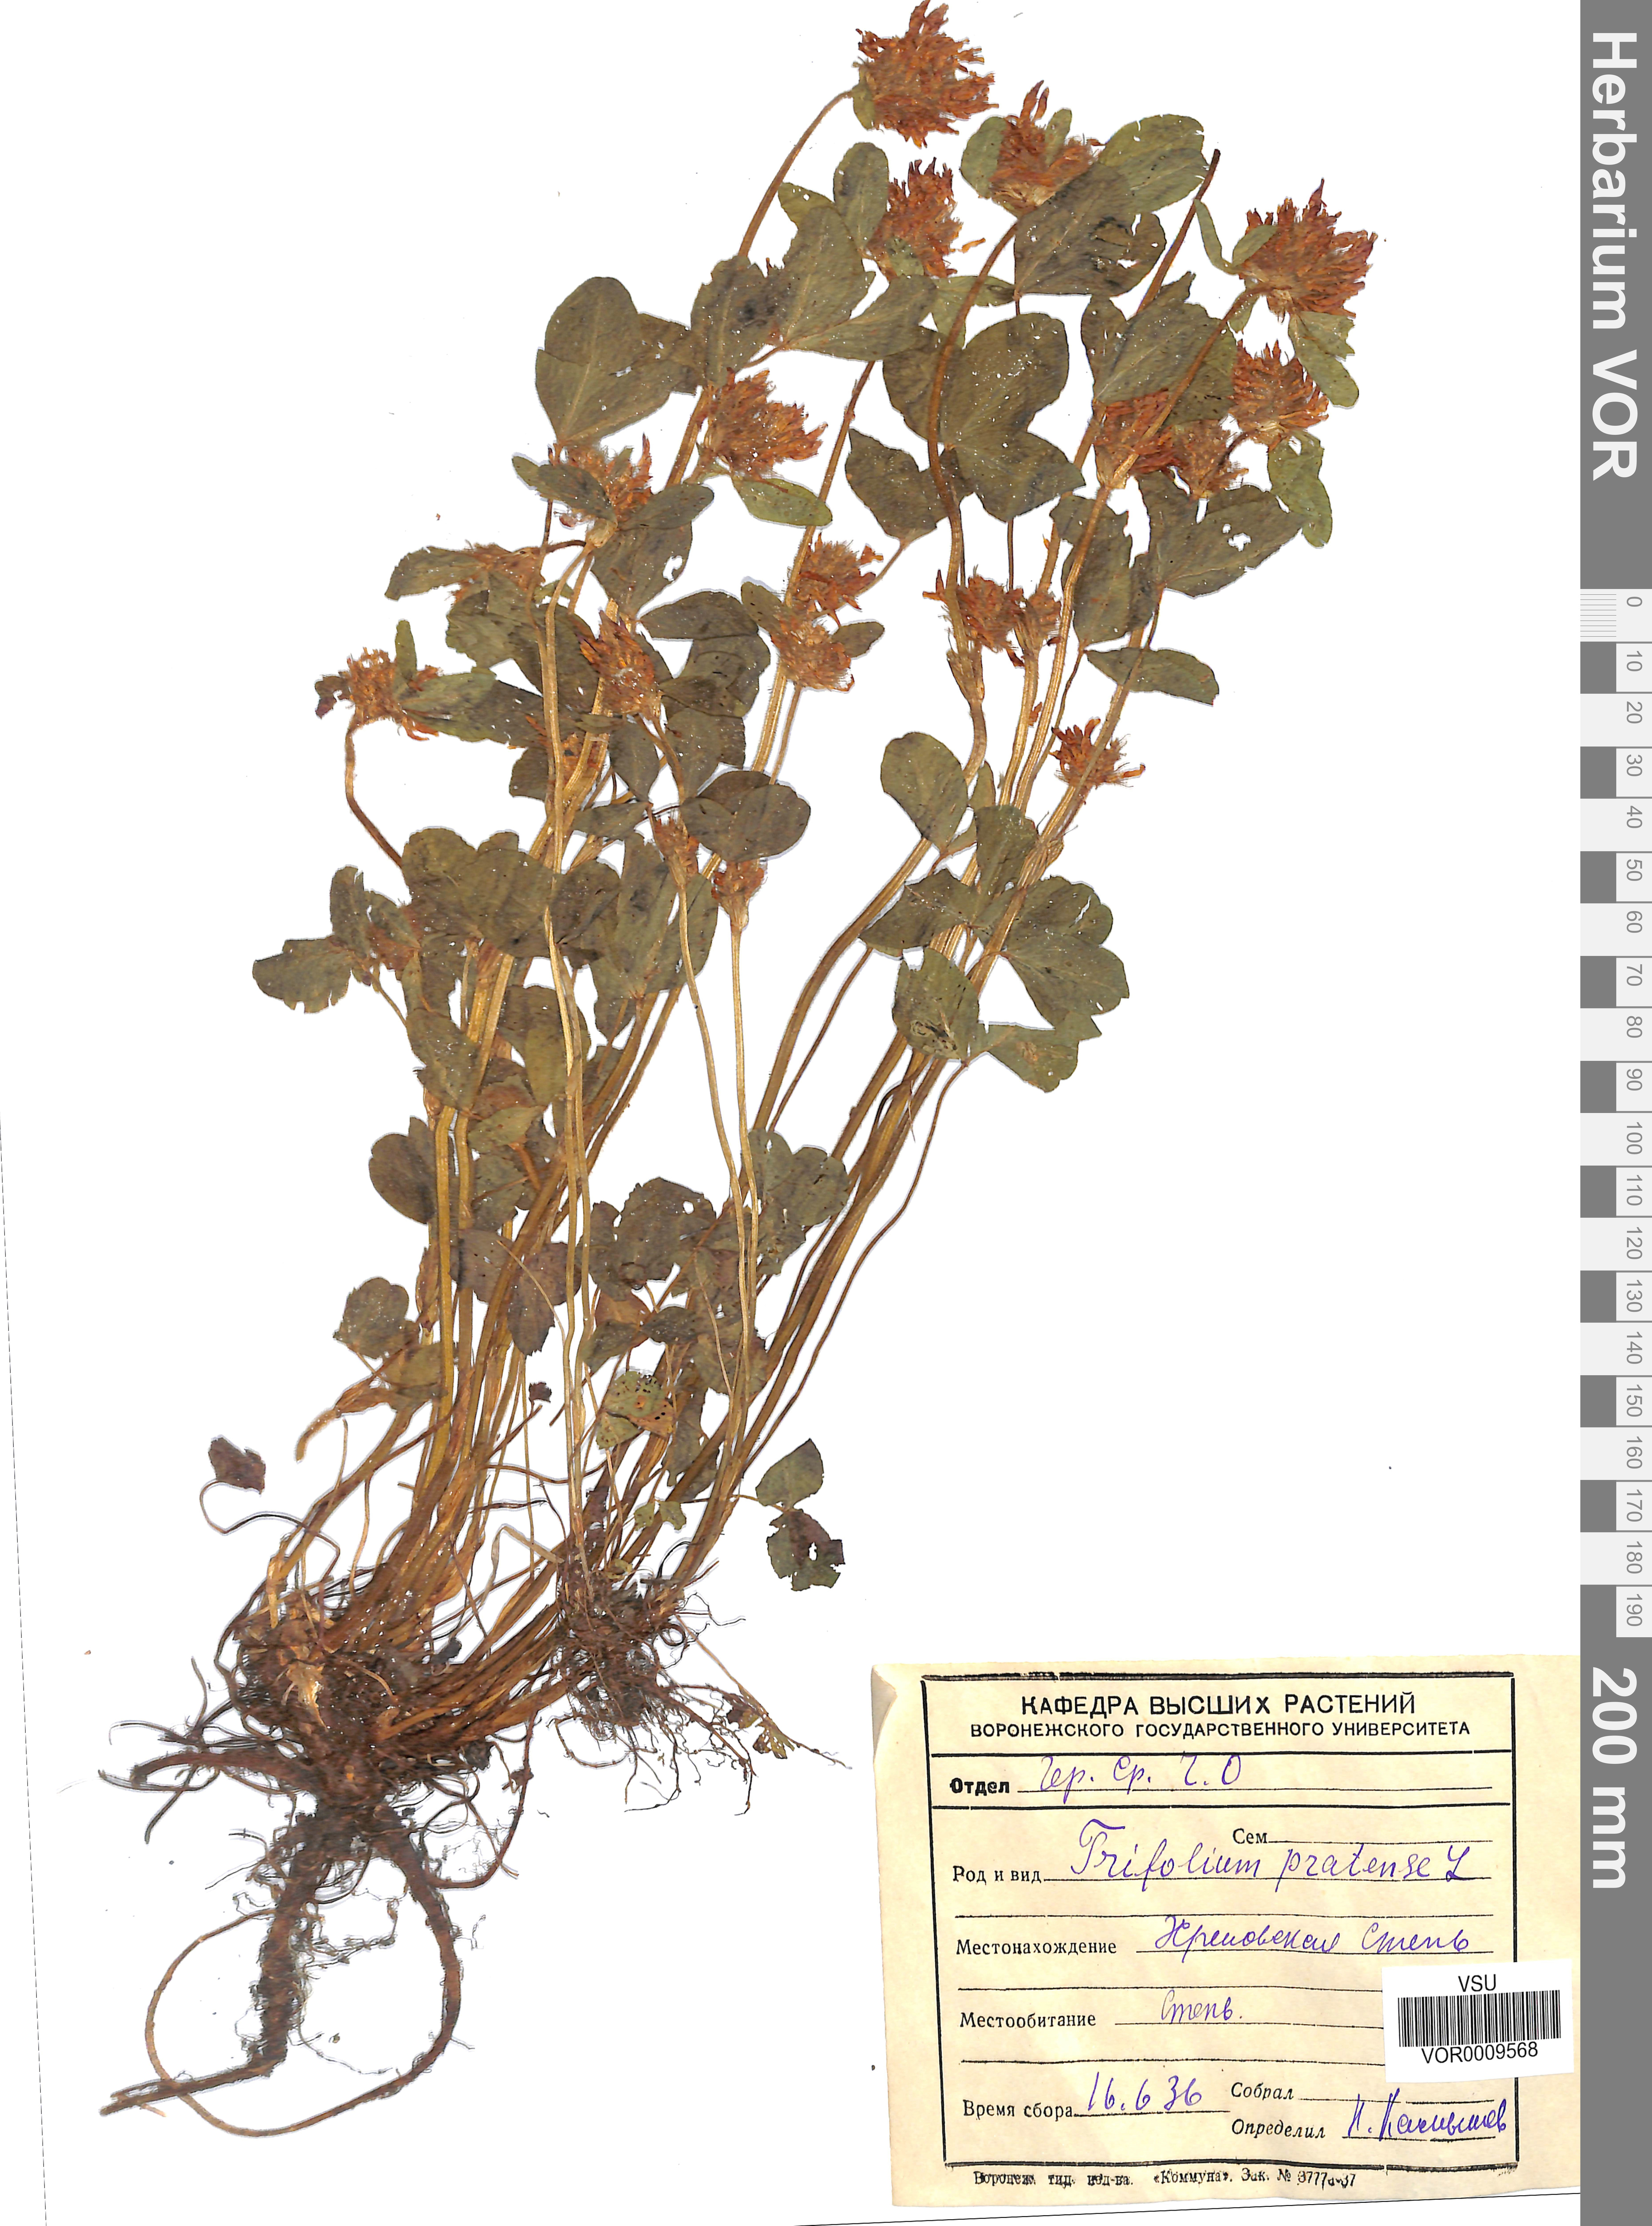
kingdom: Plantae
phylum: Tracheophyta
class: Magnoliopsida
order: Fabales
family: Fabaceae
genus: Trifolium
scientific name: Trifolium pratense
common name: Red clover
